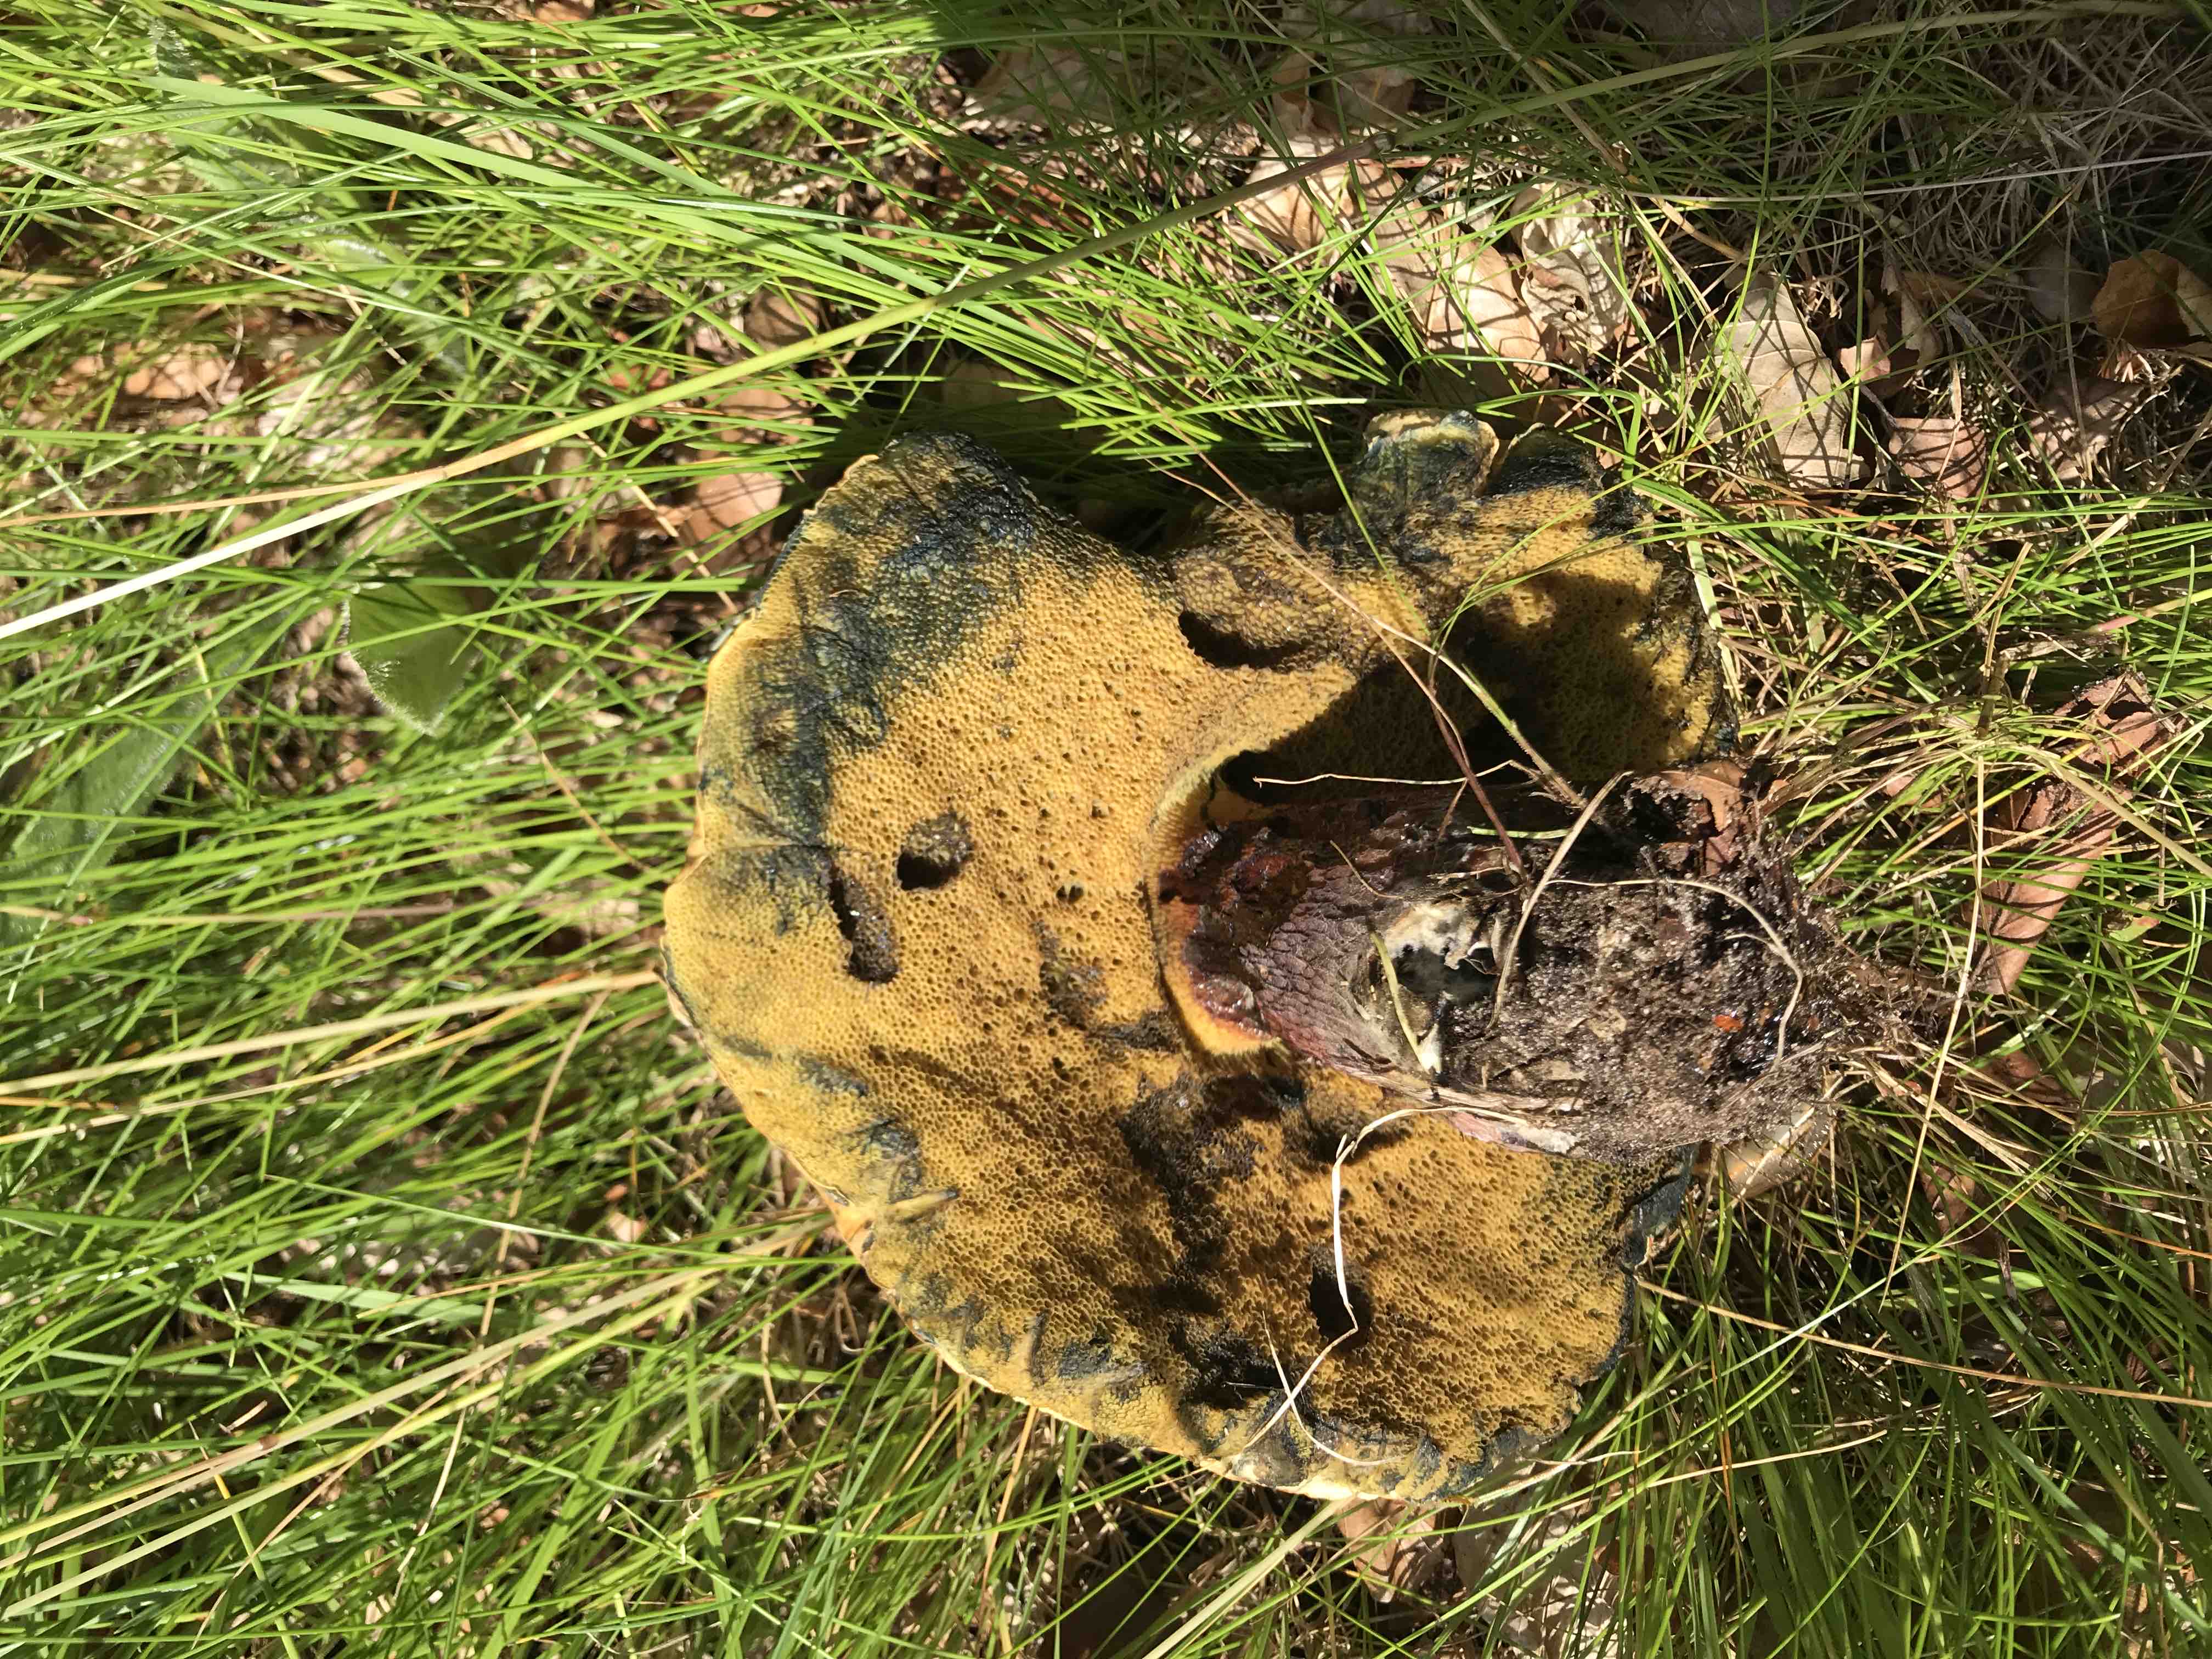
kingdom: Fungi
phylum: Basidiomycota
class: Agaricomycetes
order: Boletales
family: Boletaceae
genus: Suillellus
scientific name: Suillellus luridus
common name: netstokket indigorørhat
